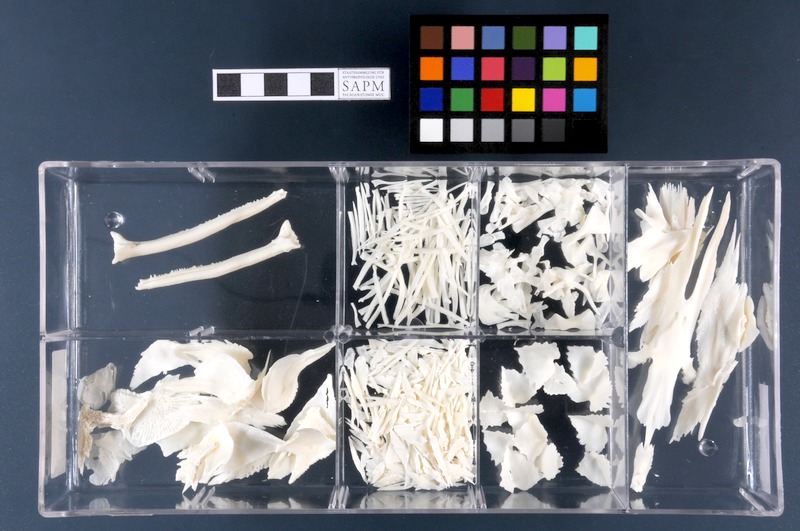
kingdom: Animalia
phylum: Chordata
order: Acipenseriformes
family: Acipenseridae
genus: Acipenser
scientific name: Acipenser ruthenus
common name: Sterlet
